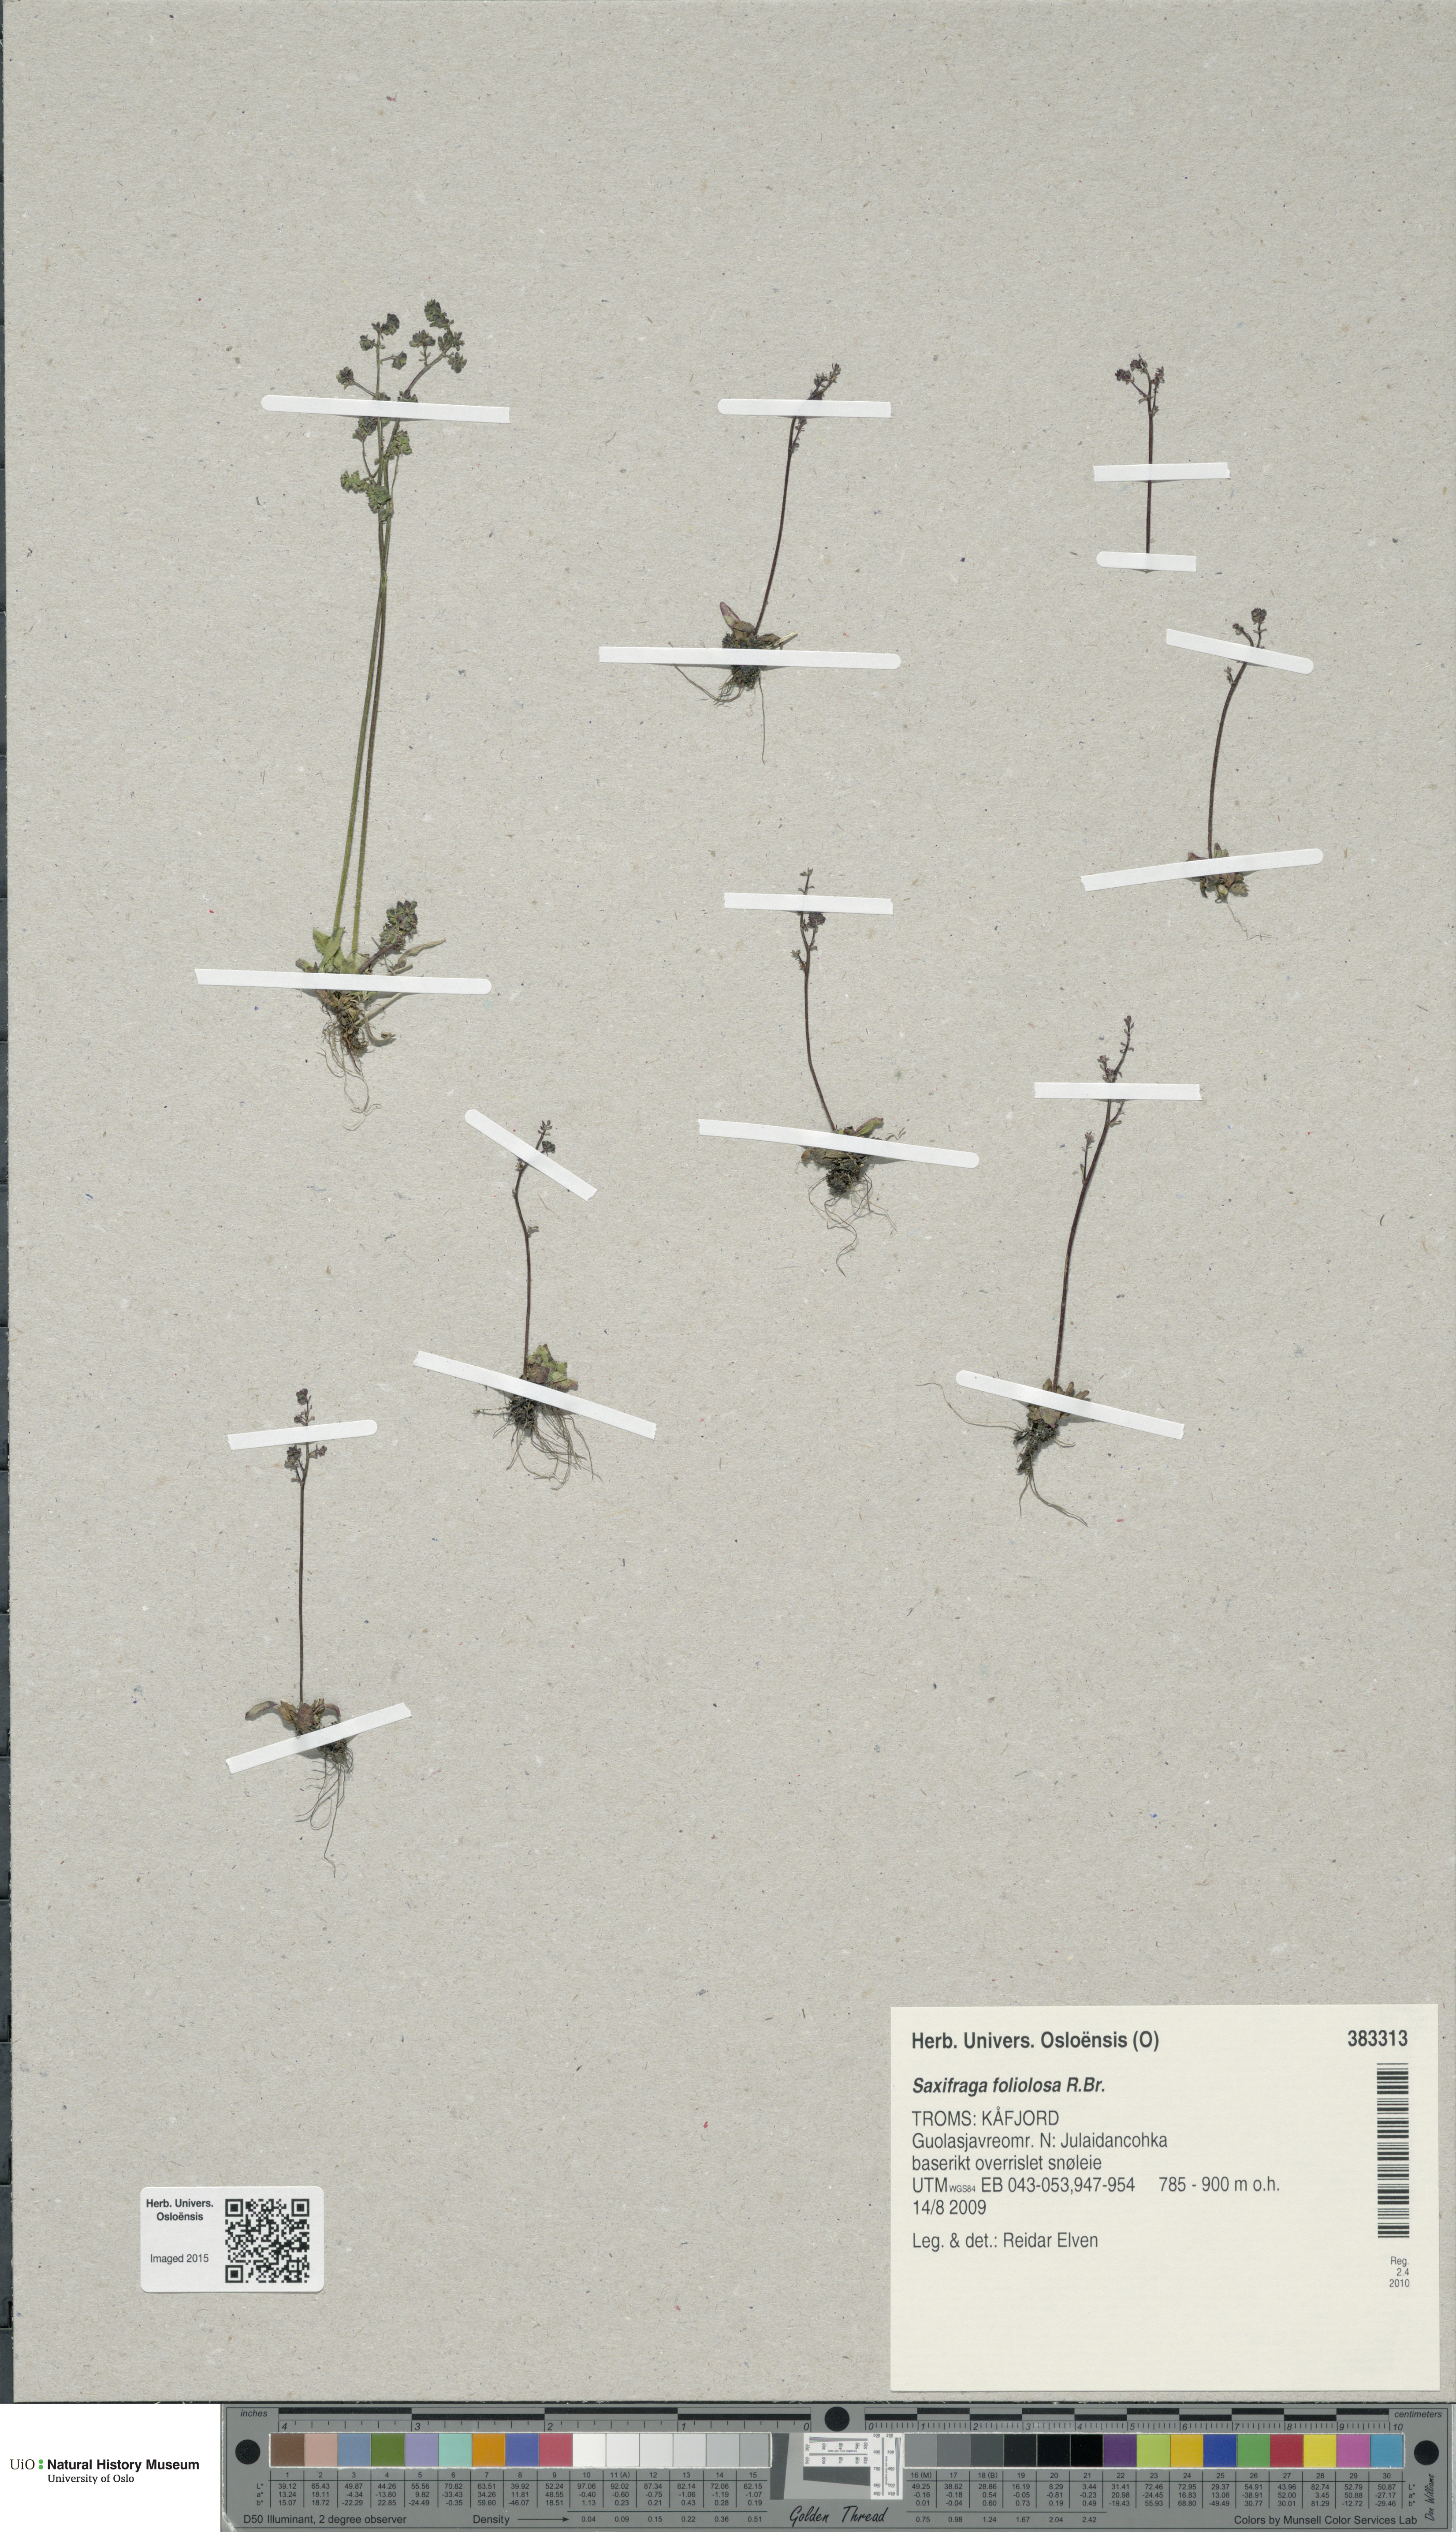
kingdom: Plantae
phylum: Tracheophyta
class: Magnoliopsida
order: Saxifragales
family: Saxifragaceae
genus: Micranthes
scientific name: Micranthes foliolosa
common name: Leafystem saxifrage
